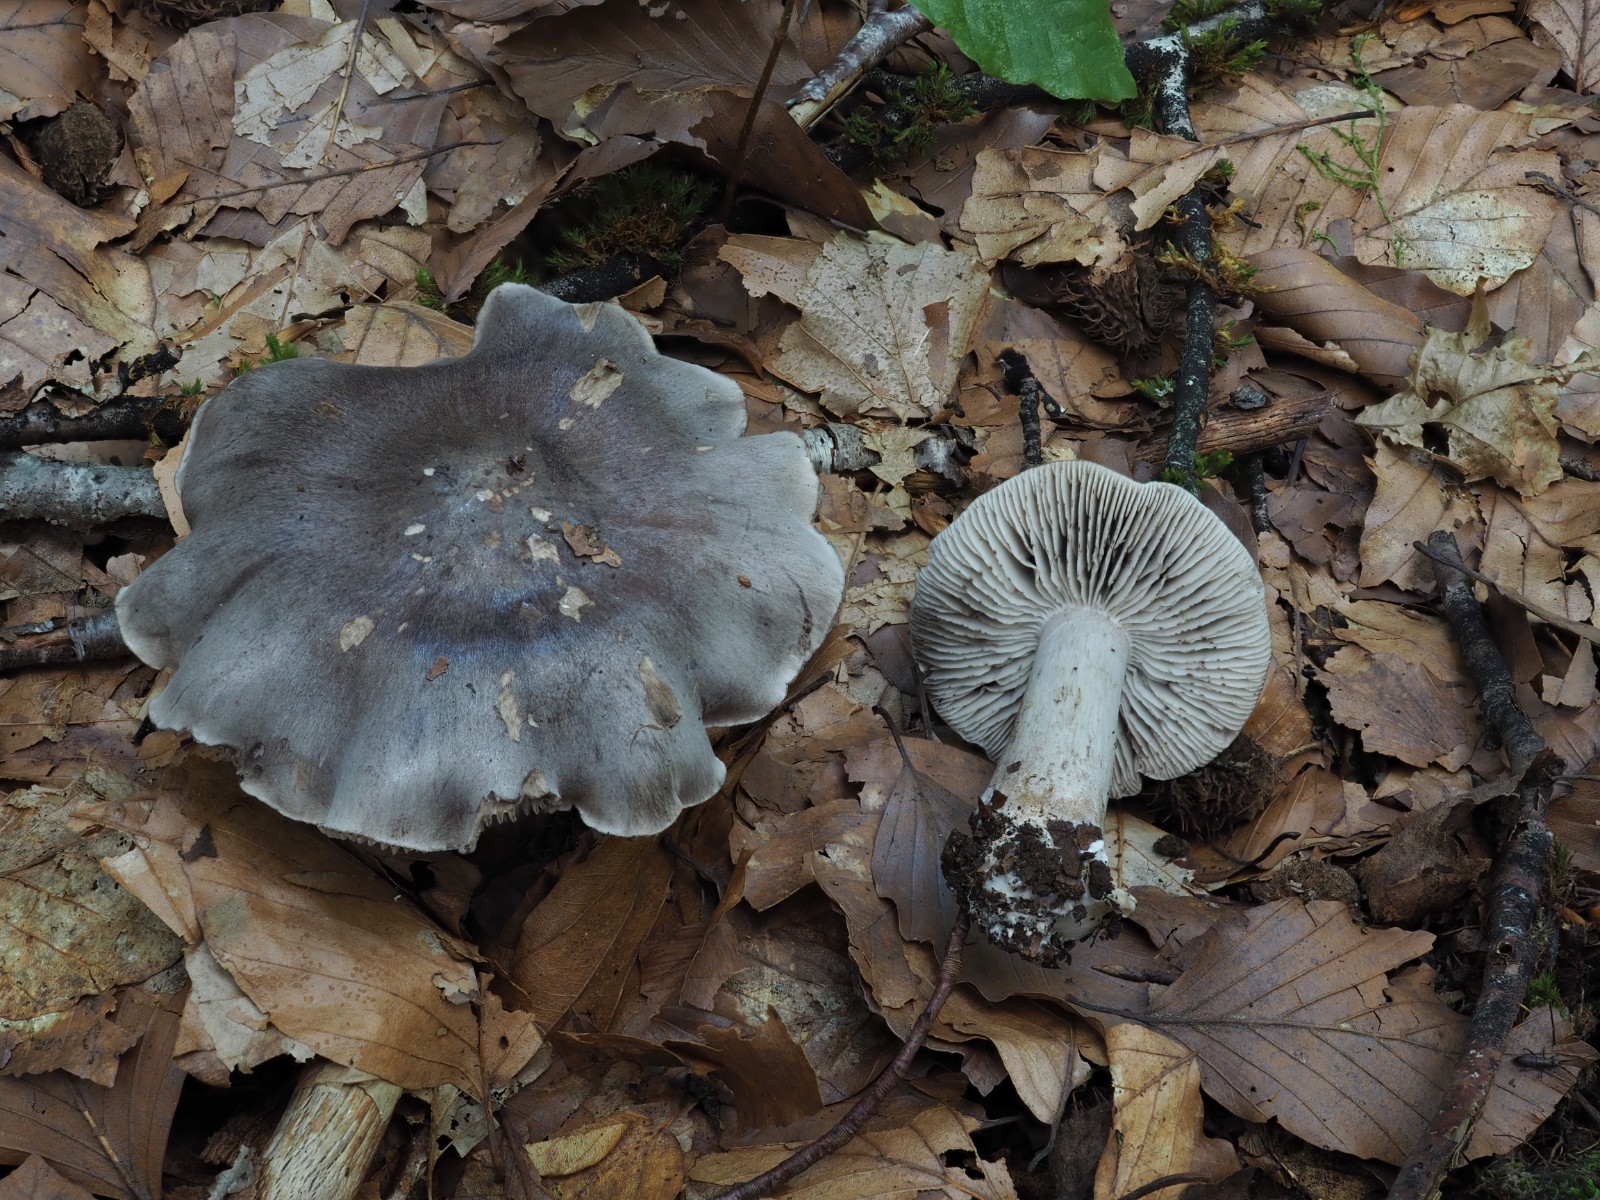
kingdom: Fungi
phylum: Basidiomycota
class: Agaricomycetes
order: Agaricales
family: Tricholomataceae
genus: Tricholoma
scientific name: Tricholoma sciodes
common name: stribet ridderhat
